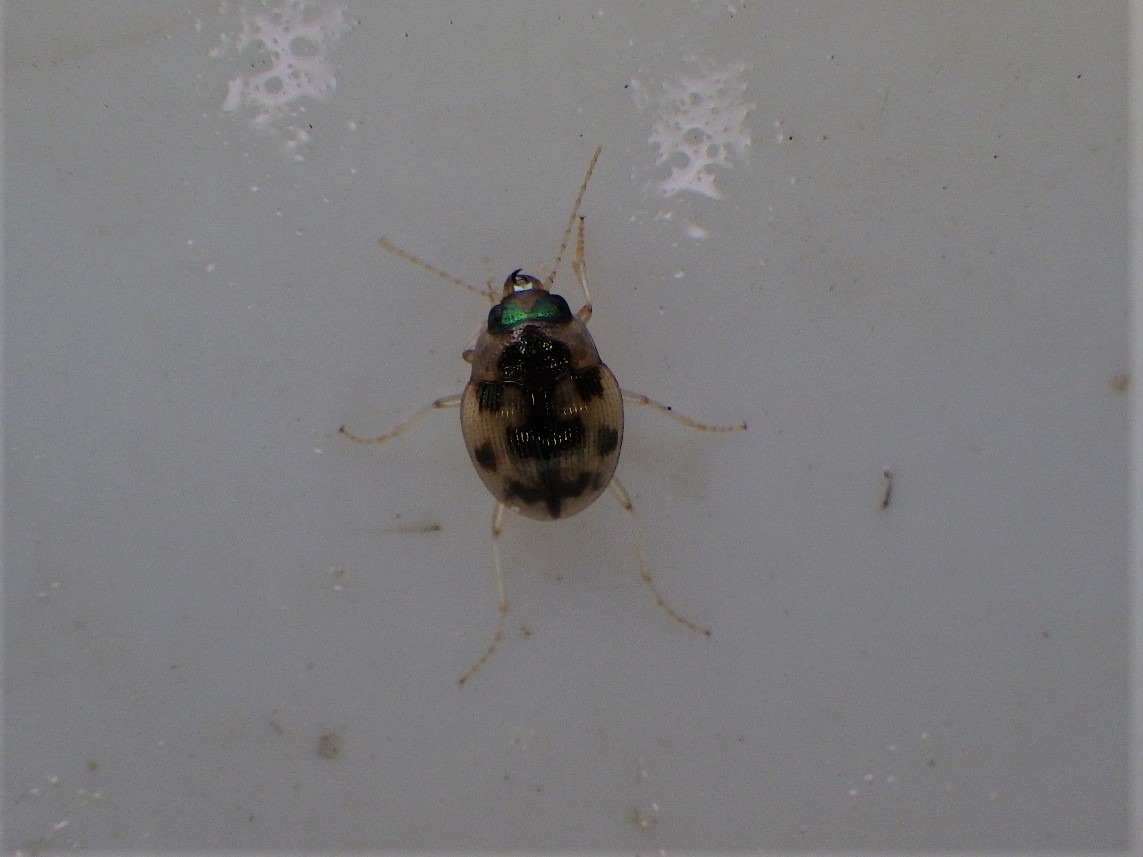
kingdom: Animalia
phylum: Arthropoda
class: Insecta
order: Coleoptera
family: Carabidae
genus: Omophron
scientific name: Omophron limbatum
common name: Kugleløber
